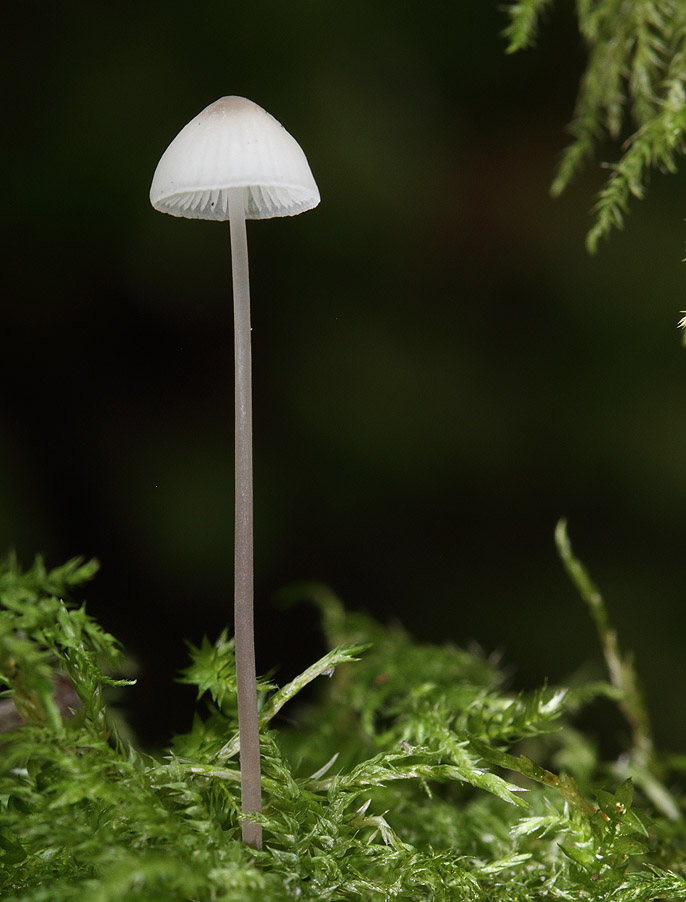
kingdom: Fungi
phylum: Basidiomycota
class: Agaricomycetes
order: Agaricales
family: Mycenaceae
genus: Mycena
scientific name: Mycena filopes
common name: jod-huesvamp
